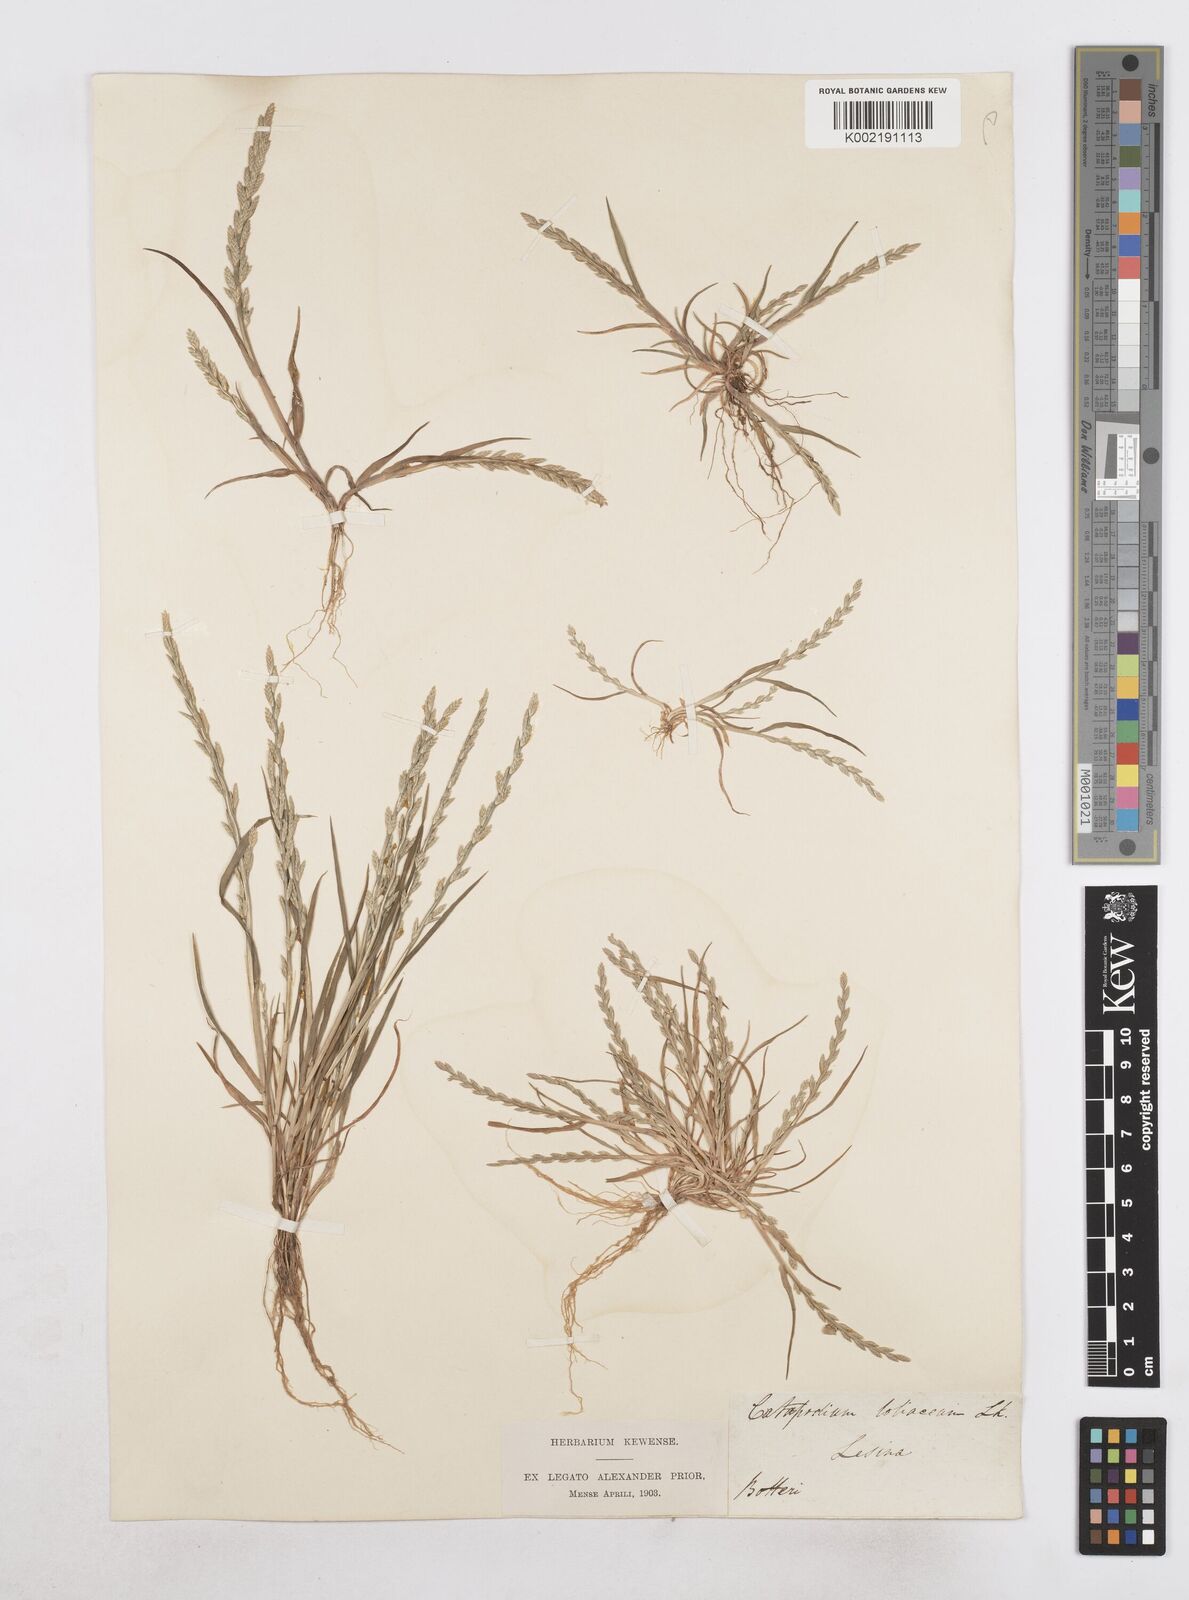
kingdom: Plantae
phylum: Tracheophyta
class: Liliopsida
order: Poales
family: Poaceae
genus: Catapodium
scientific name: Catapodium marinum
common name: Sea fern-grass
